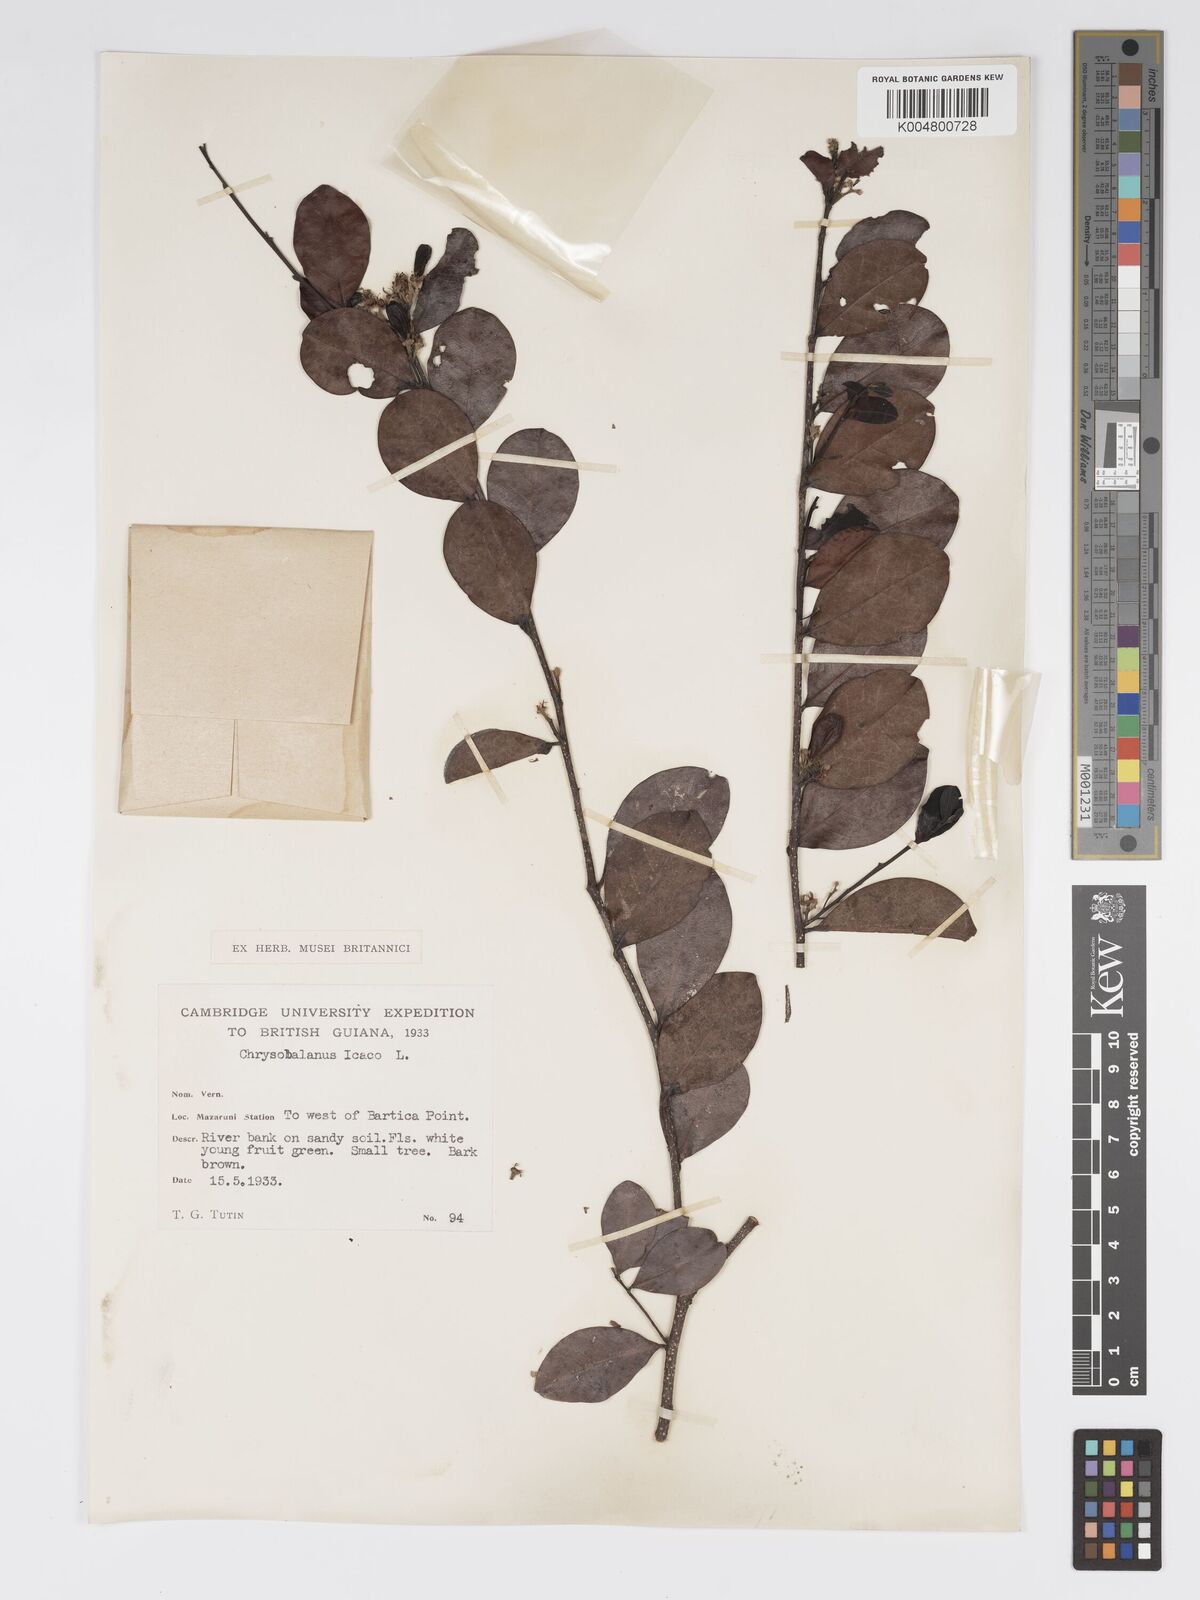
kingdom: Plantae
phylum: Tracheophyta
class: Magnoliopsida
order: Malpighiales
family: Chrysobalanaceae
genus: Chrysobalanus
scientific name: Chrysobalanus icaco
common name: Coco plum
